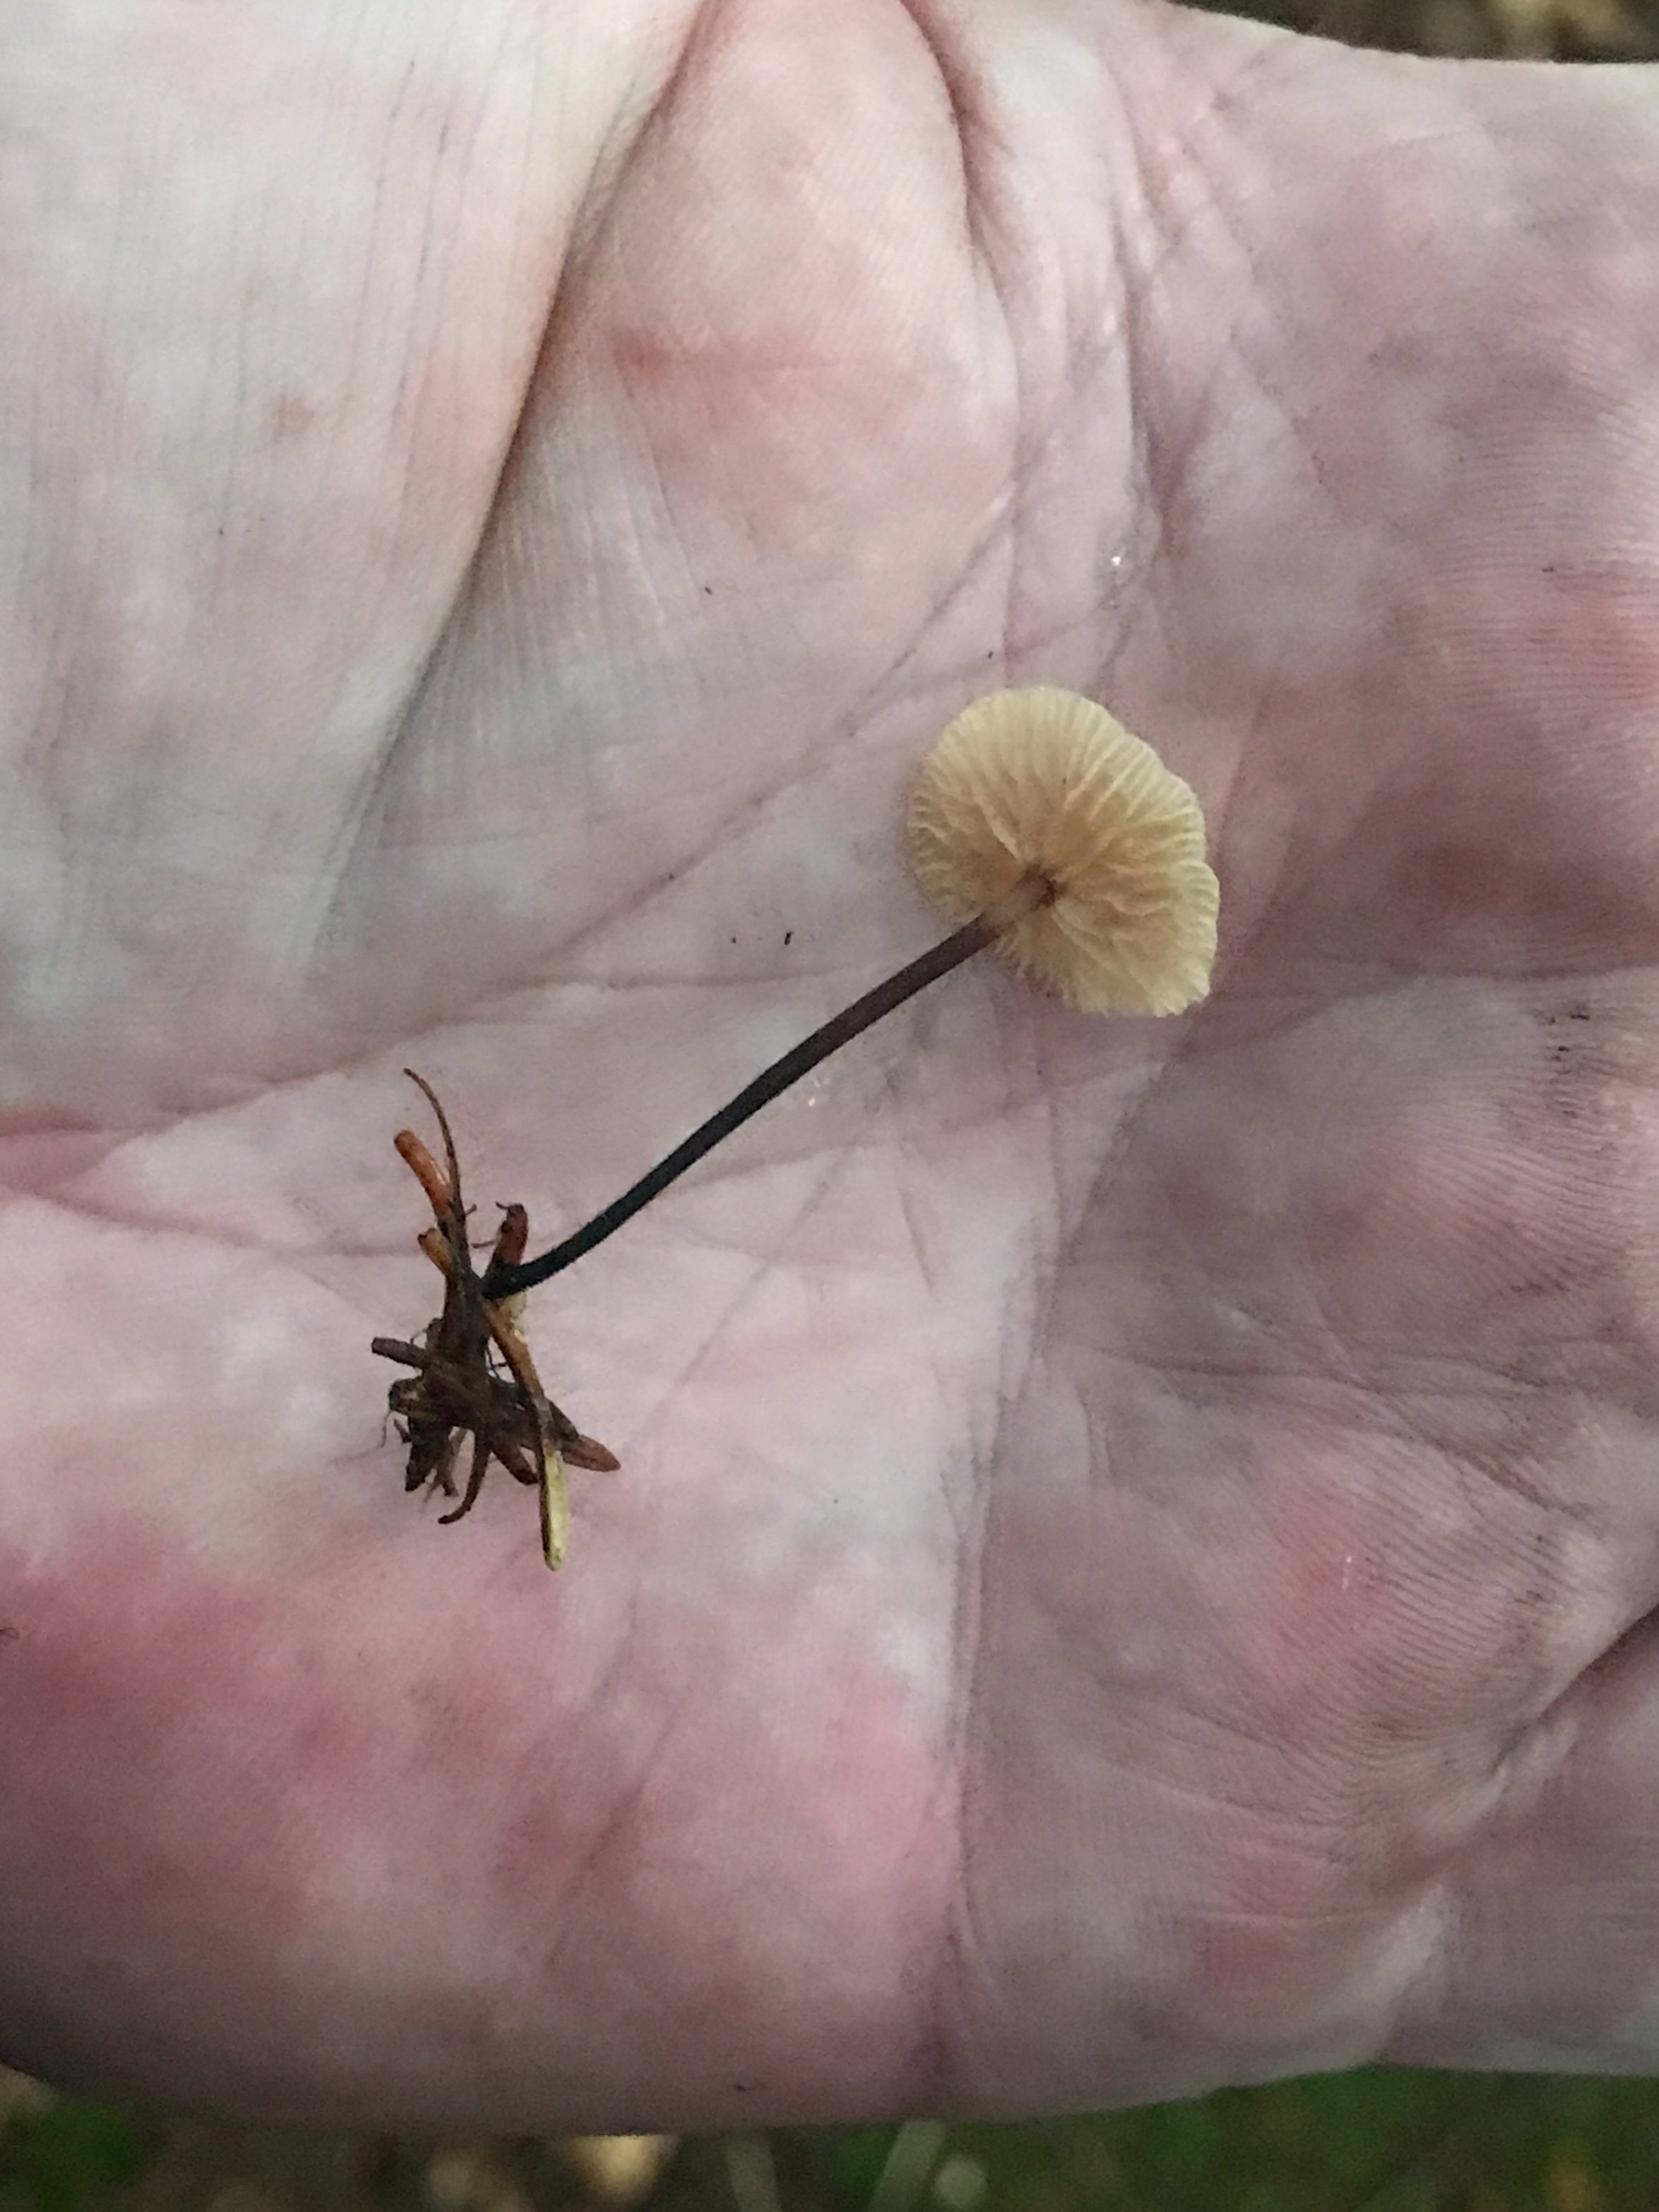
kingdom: Fungi
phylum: Basidiomycota
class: Agaricomycetes
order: Agaricales
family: Omphalotaceae
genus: Paragymnopus
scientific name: Paragymnopus perforans
